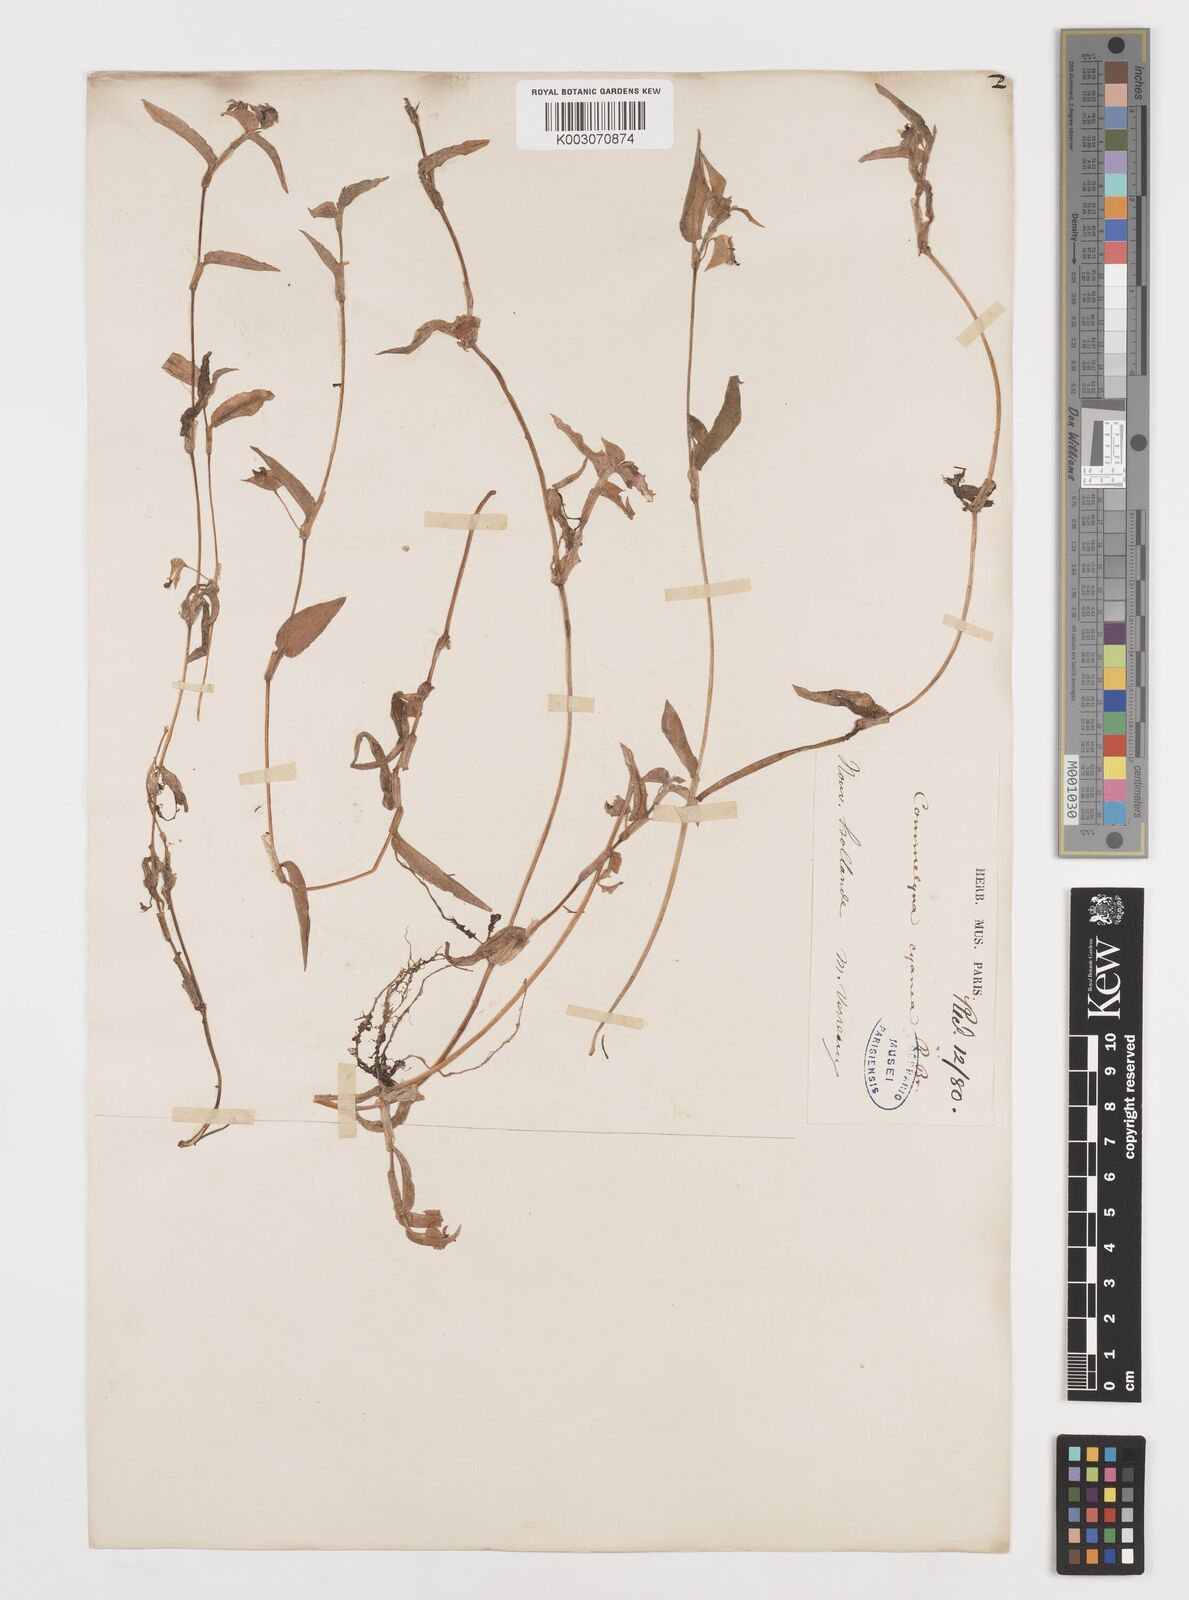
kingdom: Plantae
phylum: Tracheophyta
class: Liliopsida
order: Commelinales
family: Commelinaceae
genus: Commelina
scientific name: Commelina cyanea
